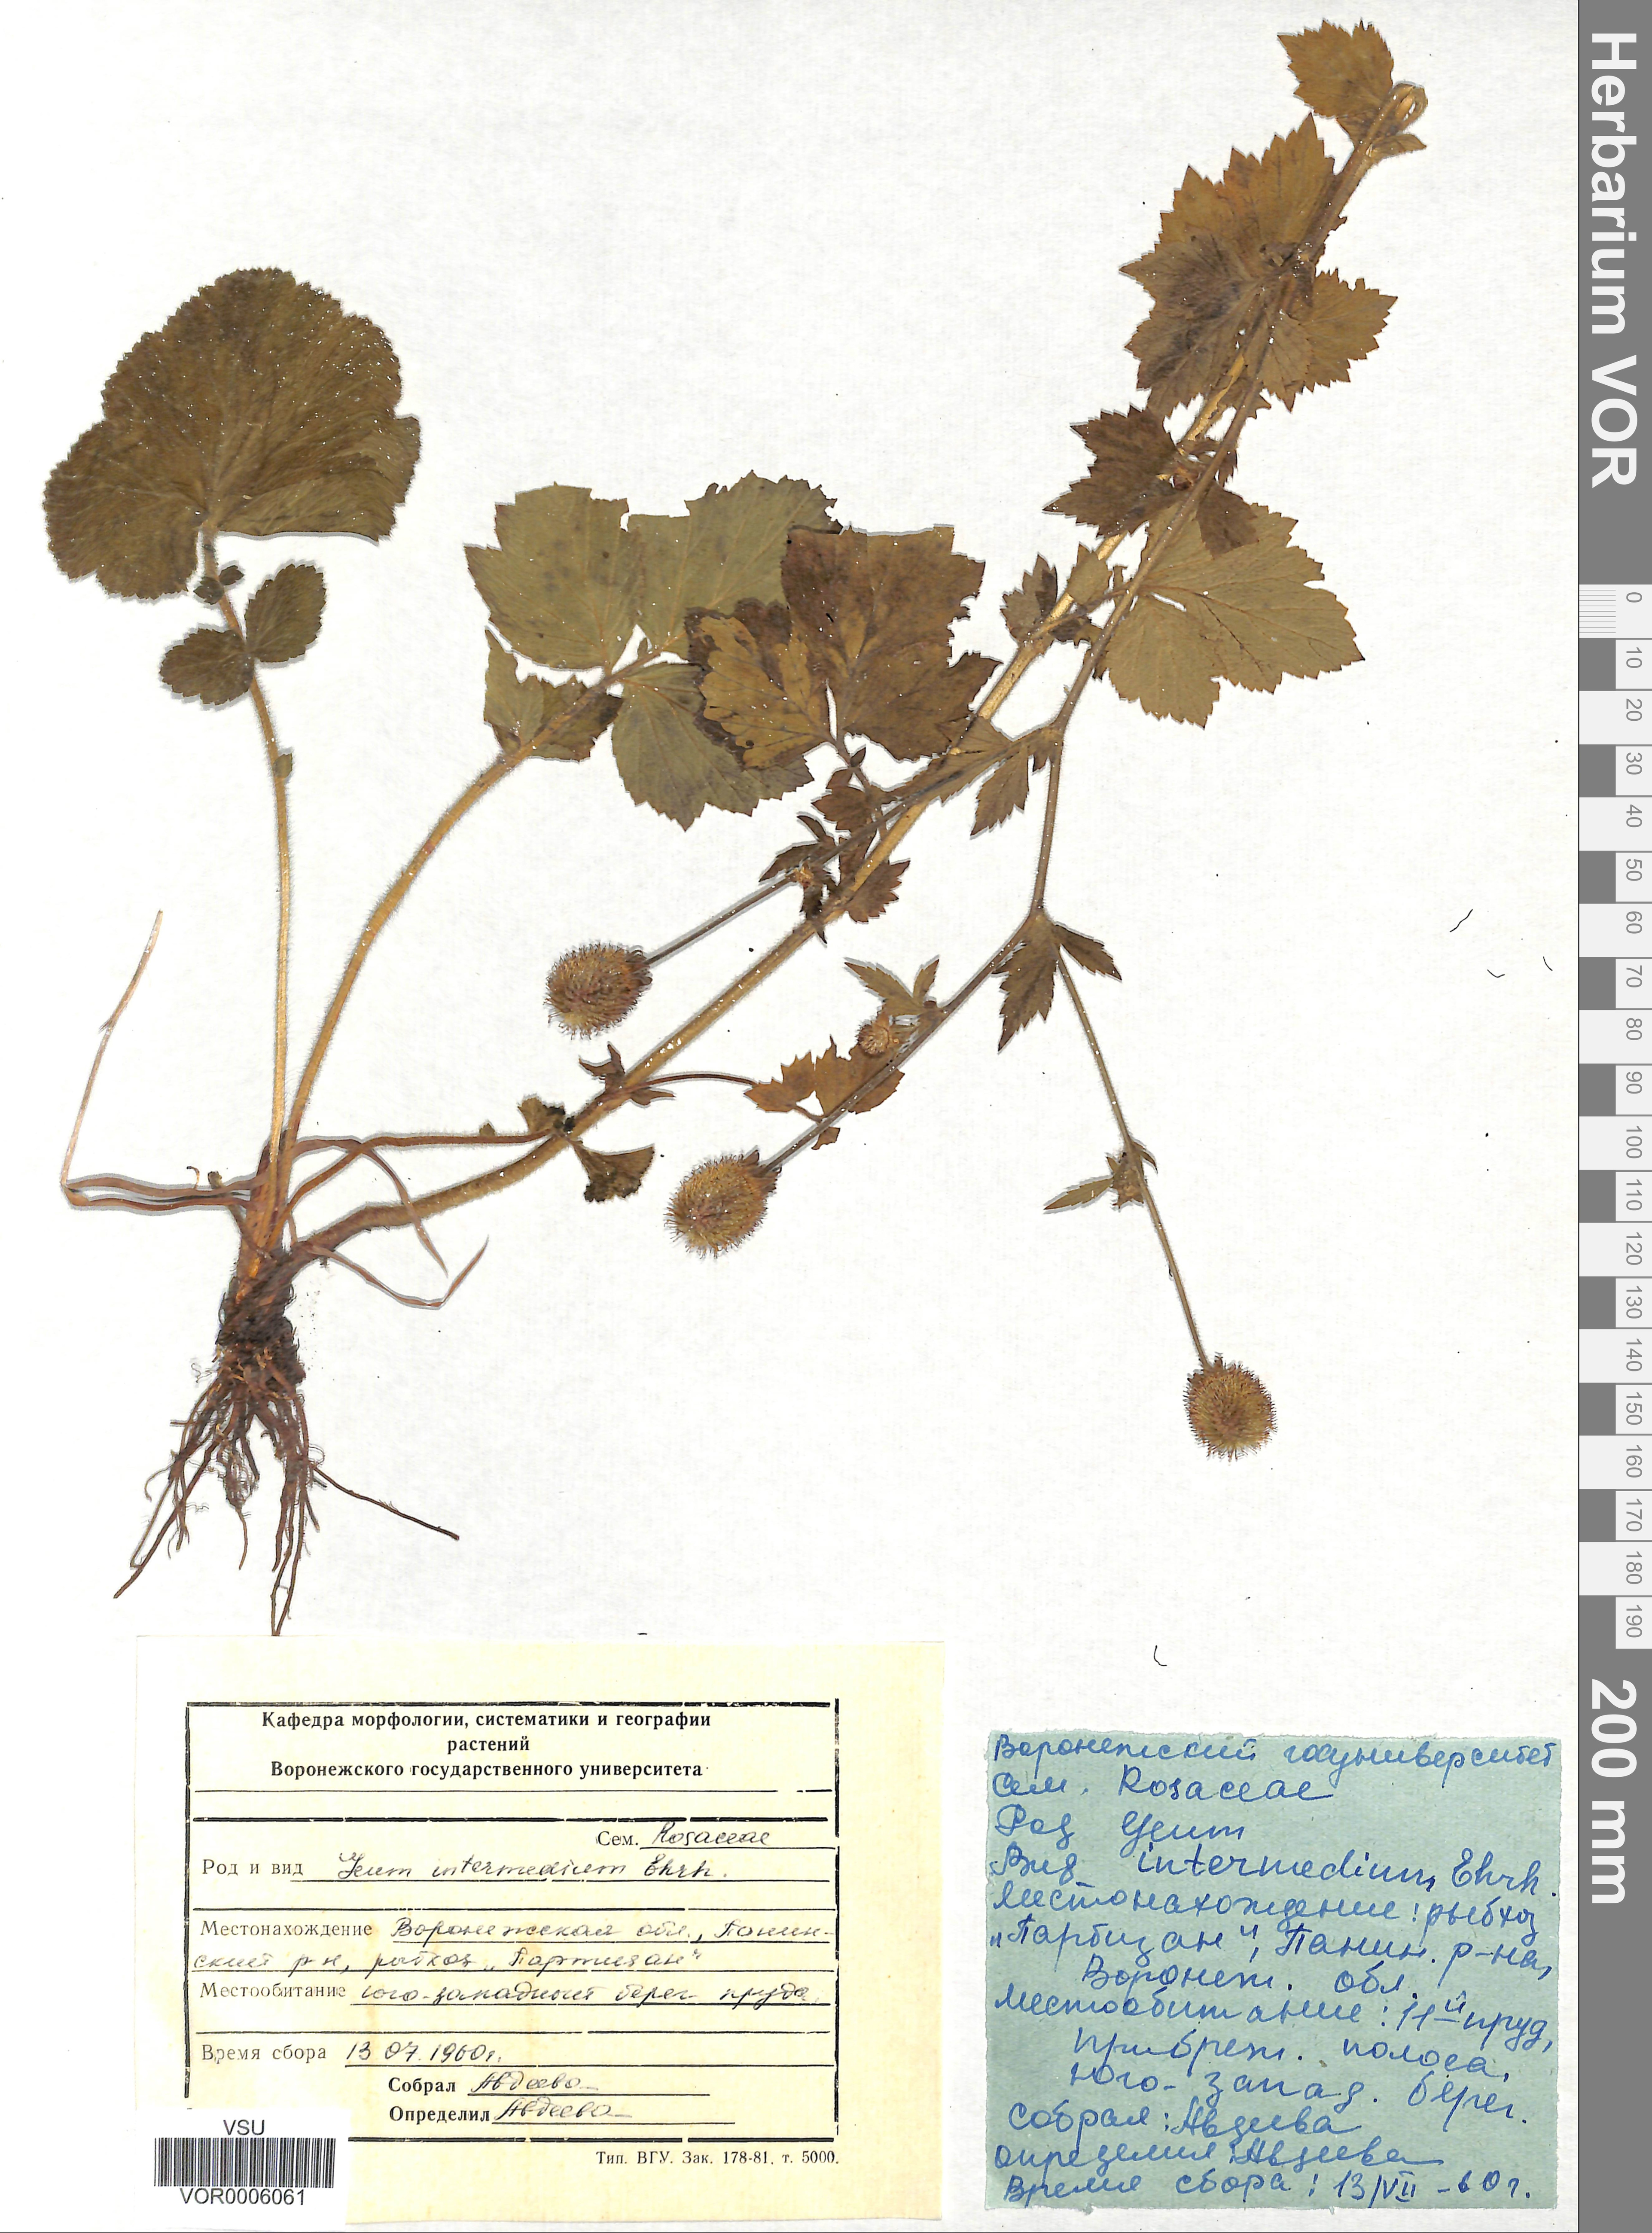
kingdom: Plantae
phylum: Tracheophyta
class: Magnoliopsida
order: Rosales
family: Rosaceae
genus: Geum
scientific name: Geum intermedium
